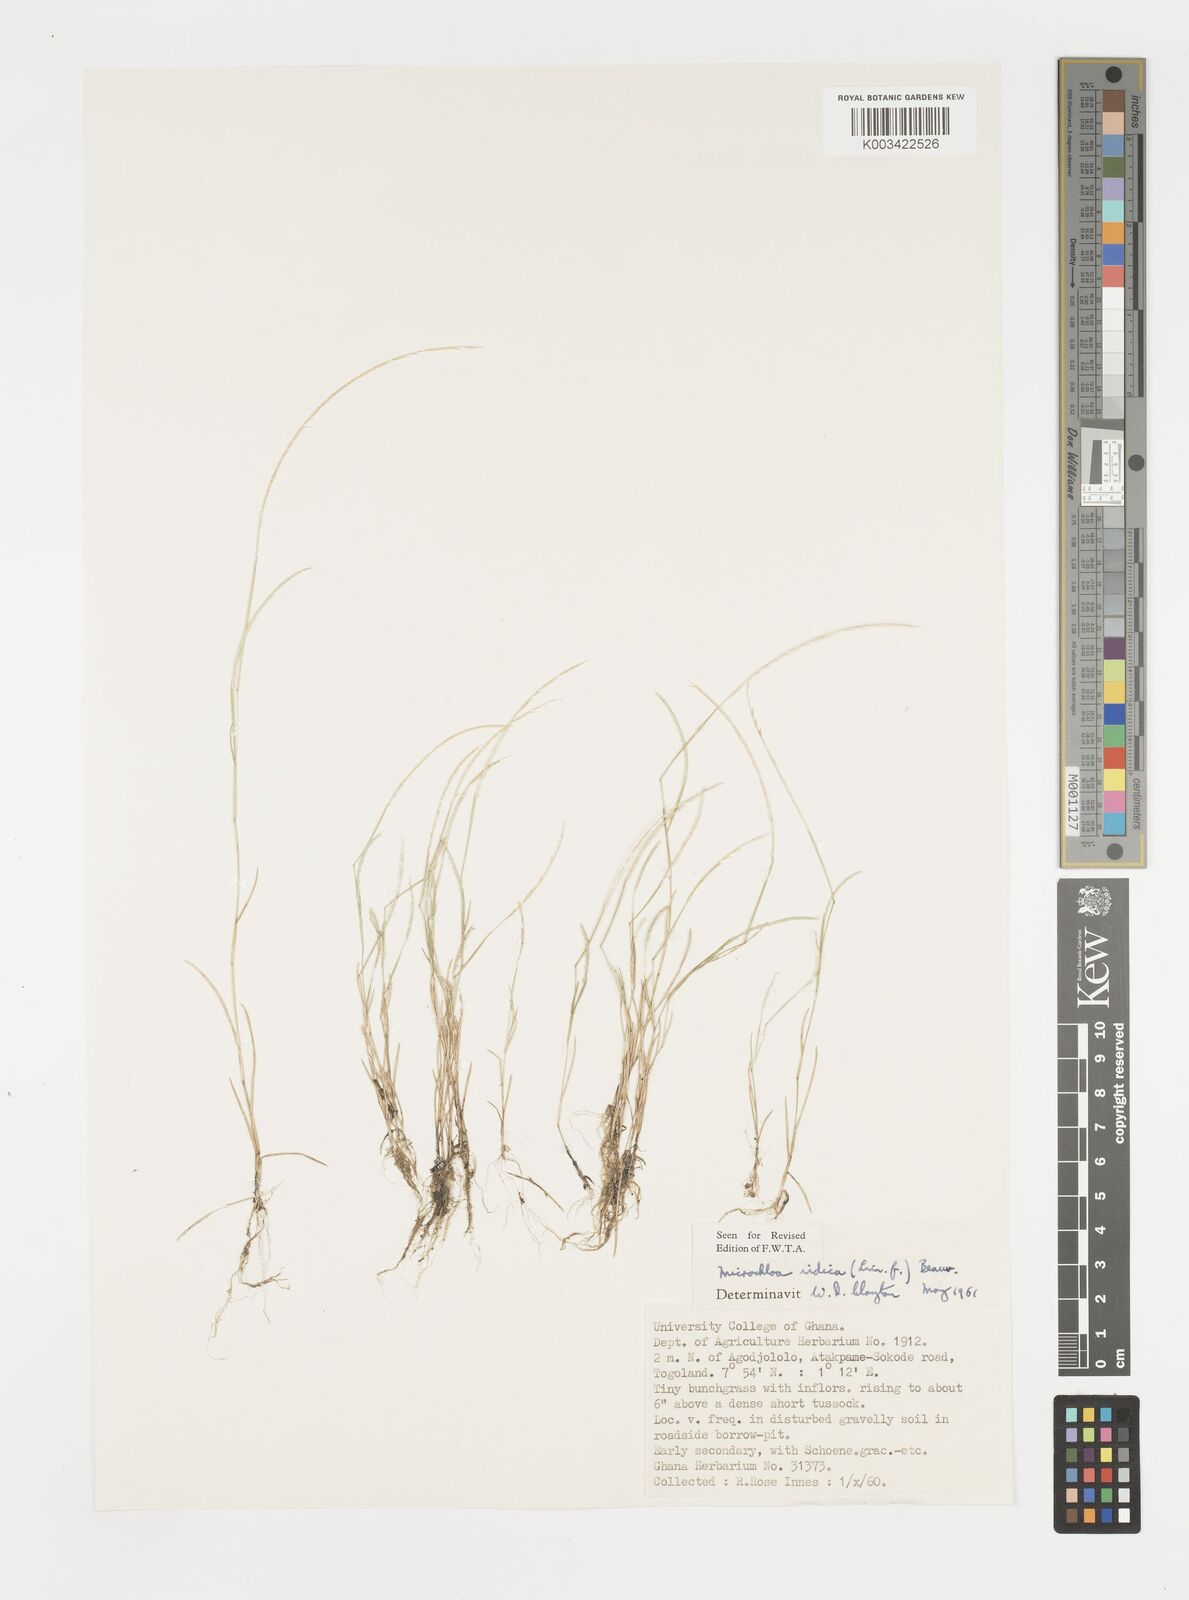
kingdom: Plantae
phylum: Tracheophyta
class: Liliopsida
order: Poales
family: Poaceae
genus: Microchloa
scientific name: Microchloa indica
